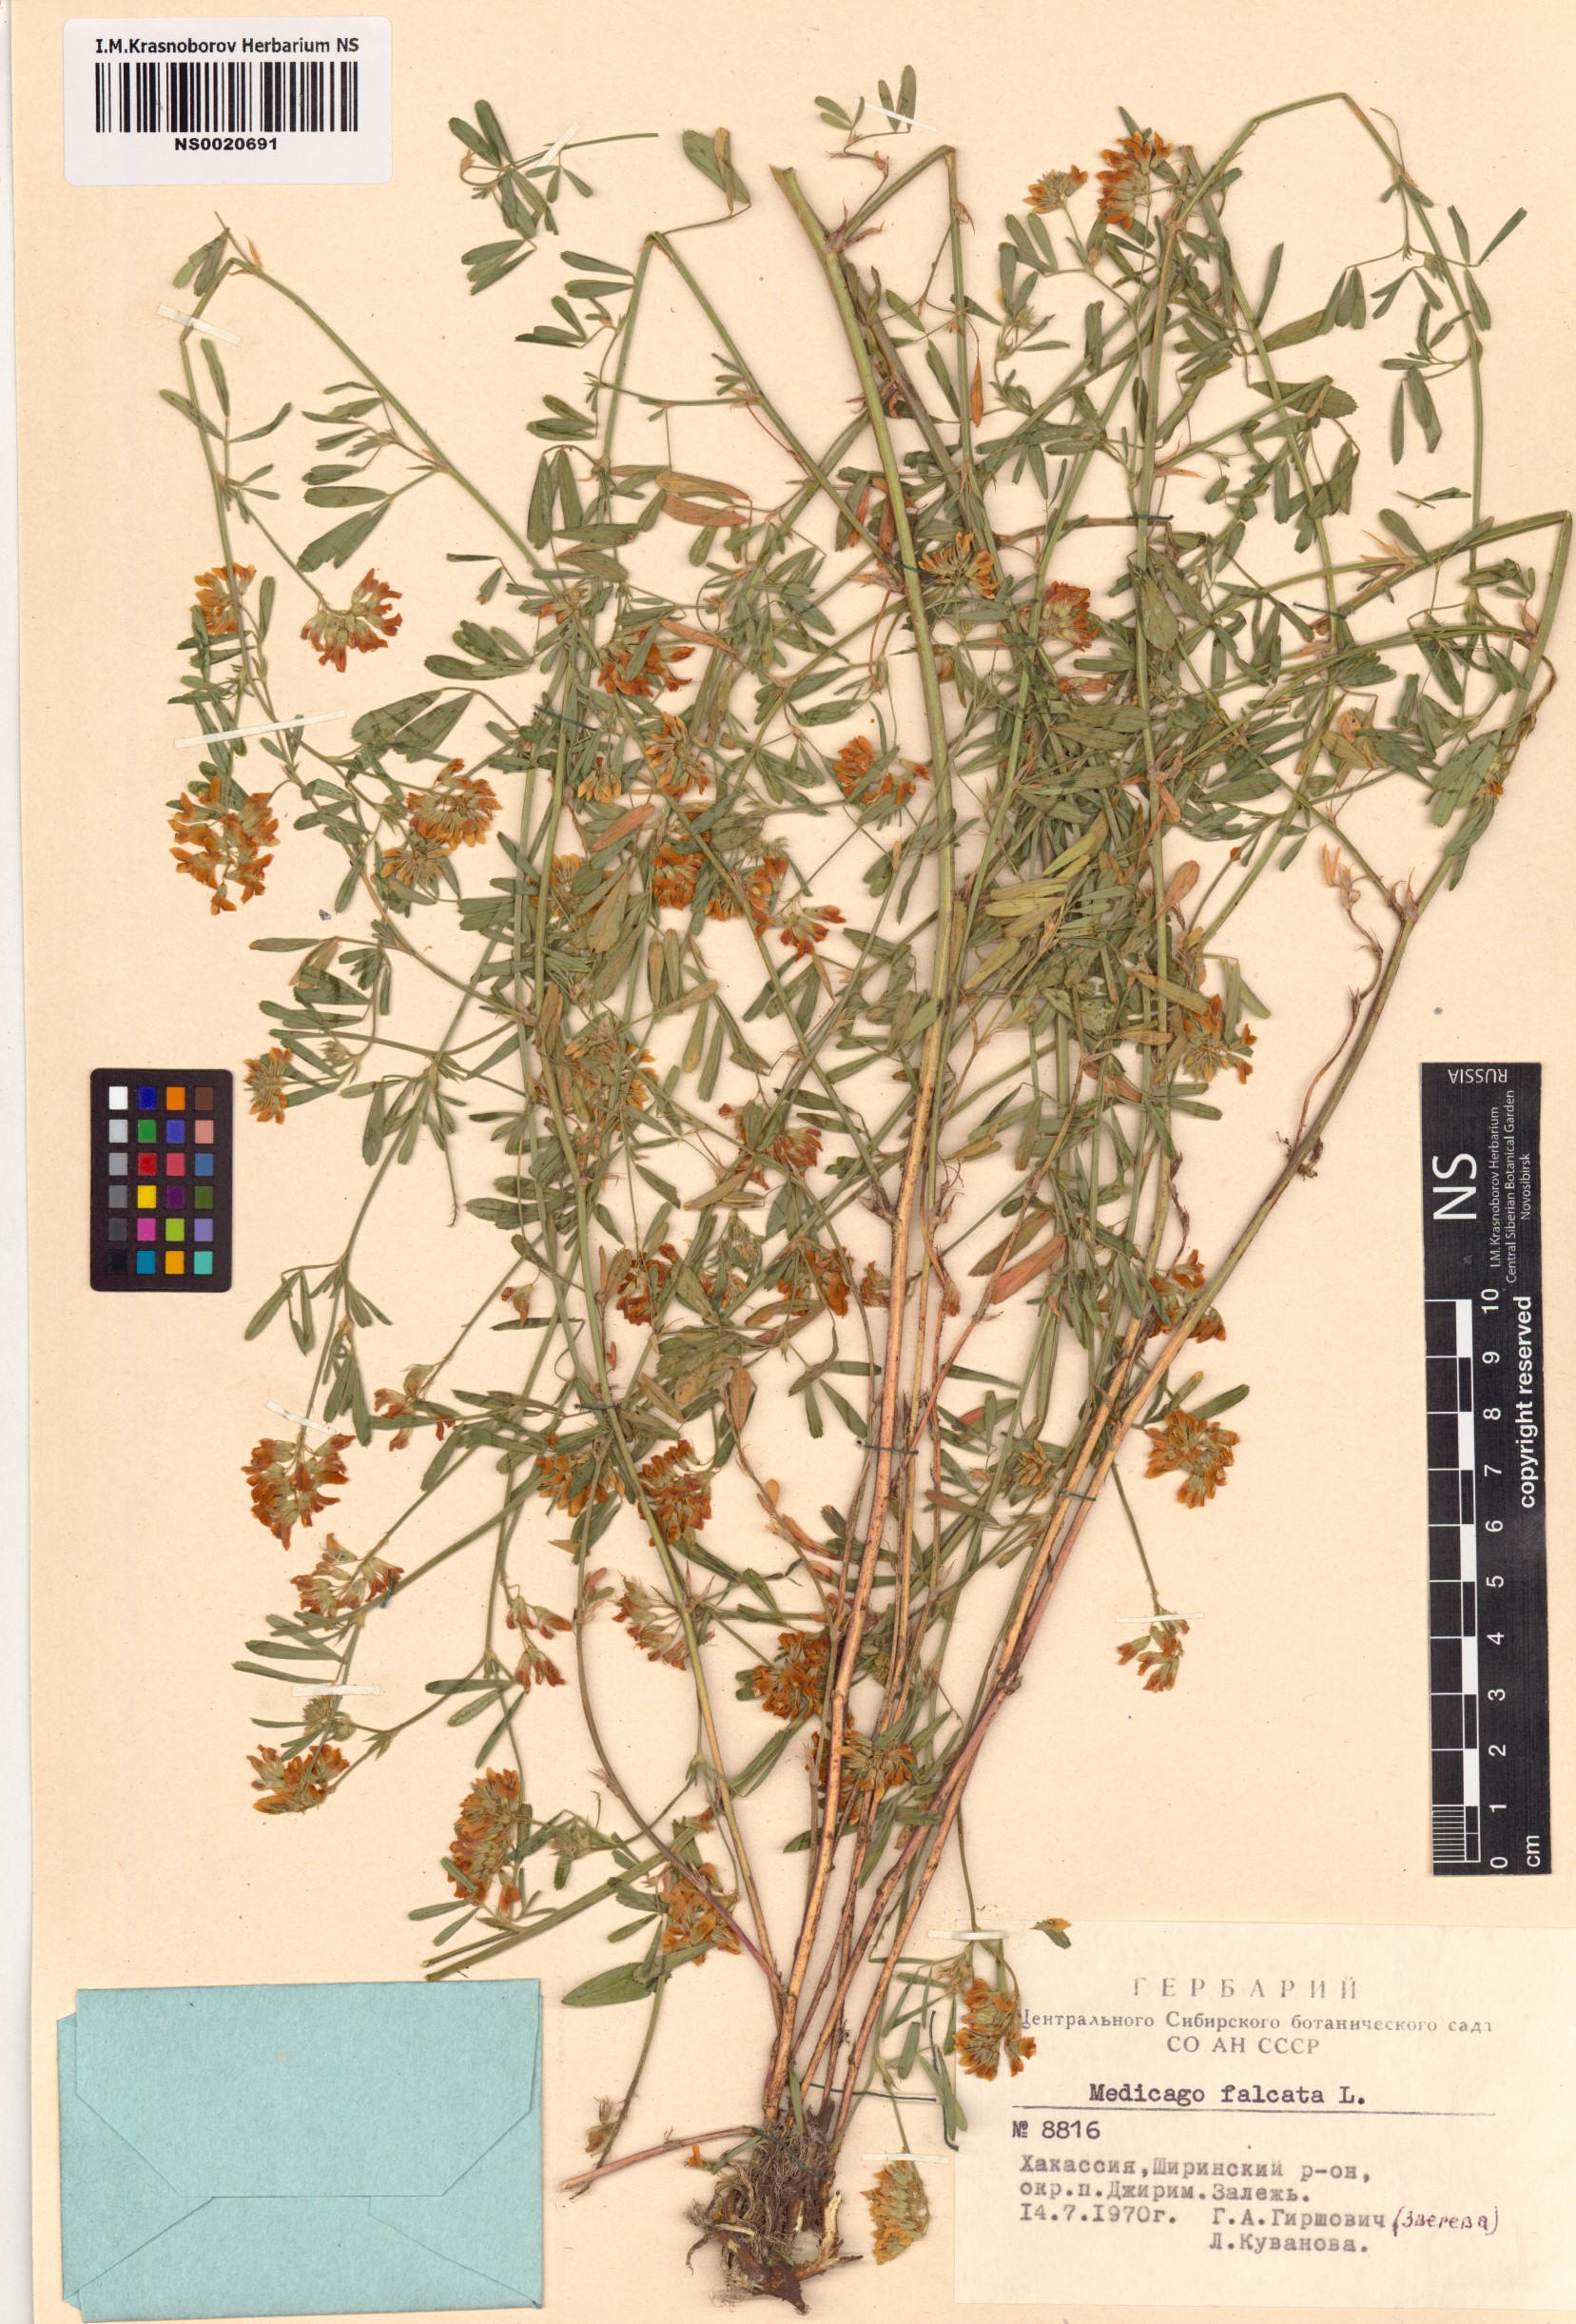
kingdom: Plantae
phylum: Tracheophyta
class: Magnoliopsida
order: Fabales
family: Fabaceae
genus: Medicago
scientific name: Medicago falcata
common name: Sickle medick
